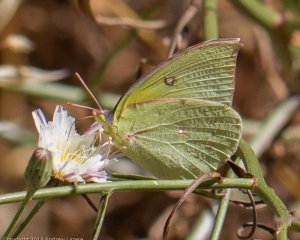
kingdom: Animalia
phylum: Arthropoda
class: Insecta
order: Lepidoptera
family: Pieridae
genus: Zerene
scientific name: Zerene eurydice
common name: California Dogface
